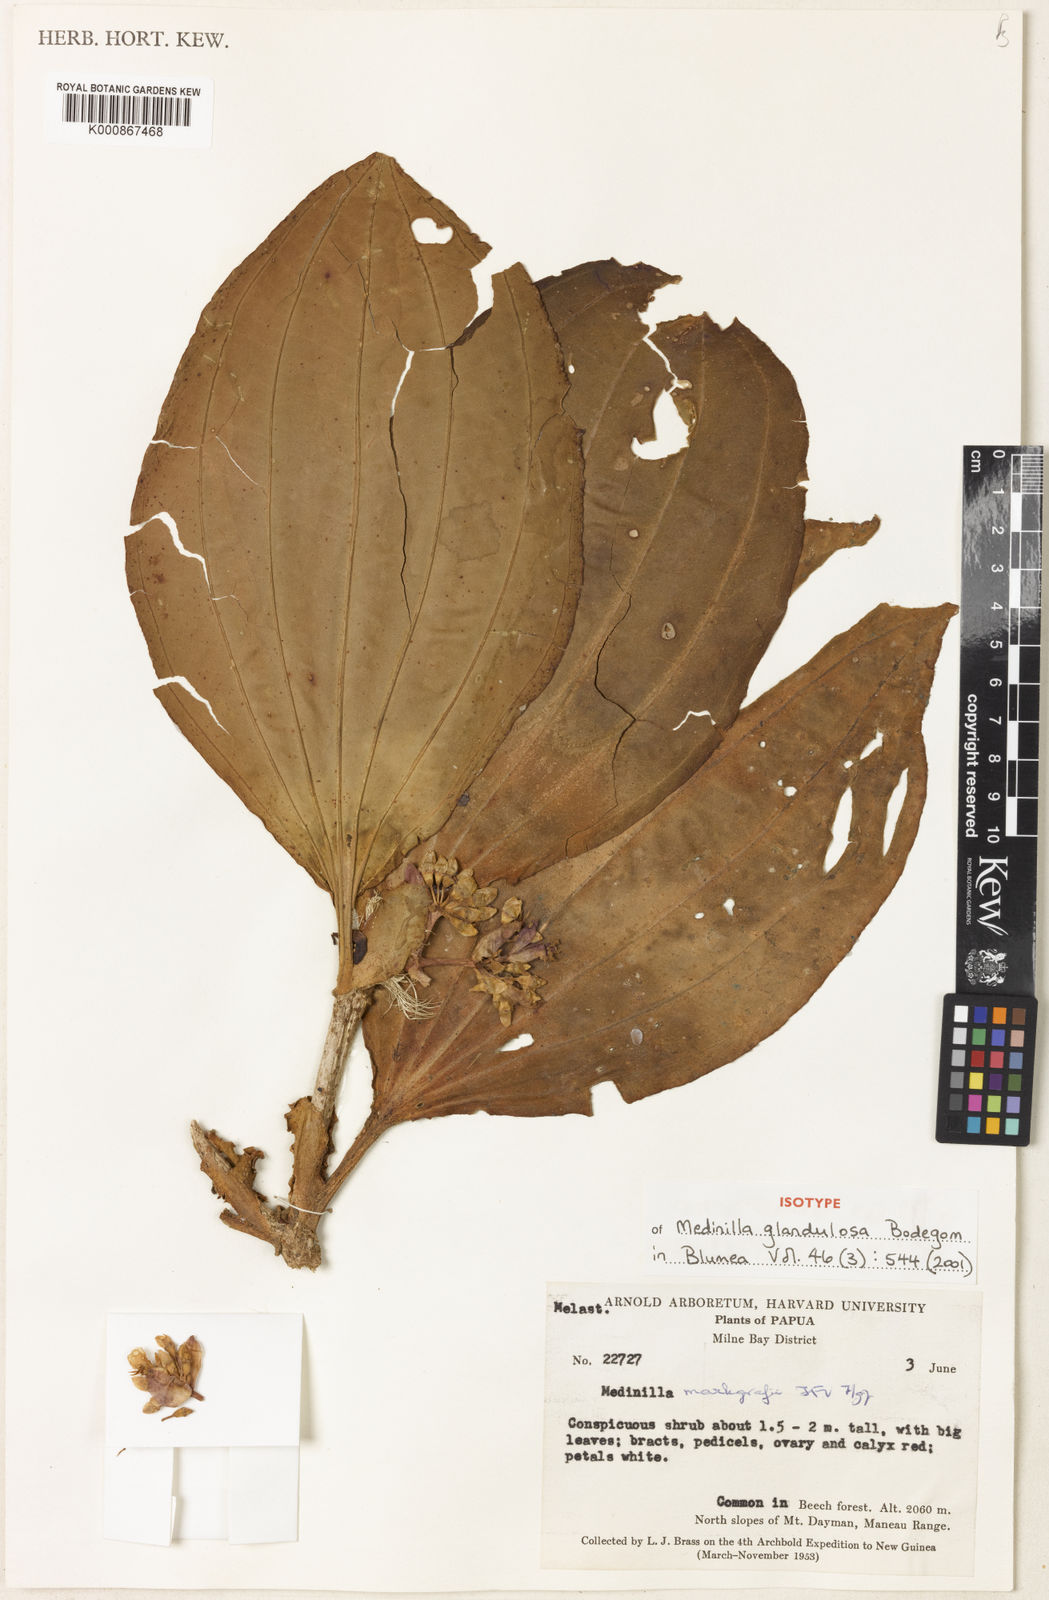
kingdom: Plantae
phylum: Tracheophyta
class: Magnoliopsida
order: Myrtales
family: Melastomataceae
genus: Medinilla
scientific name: Medinilla glandulosa
